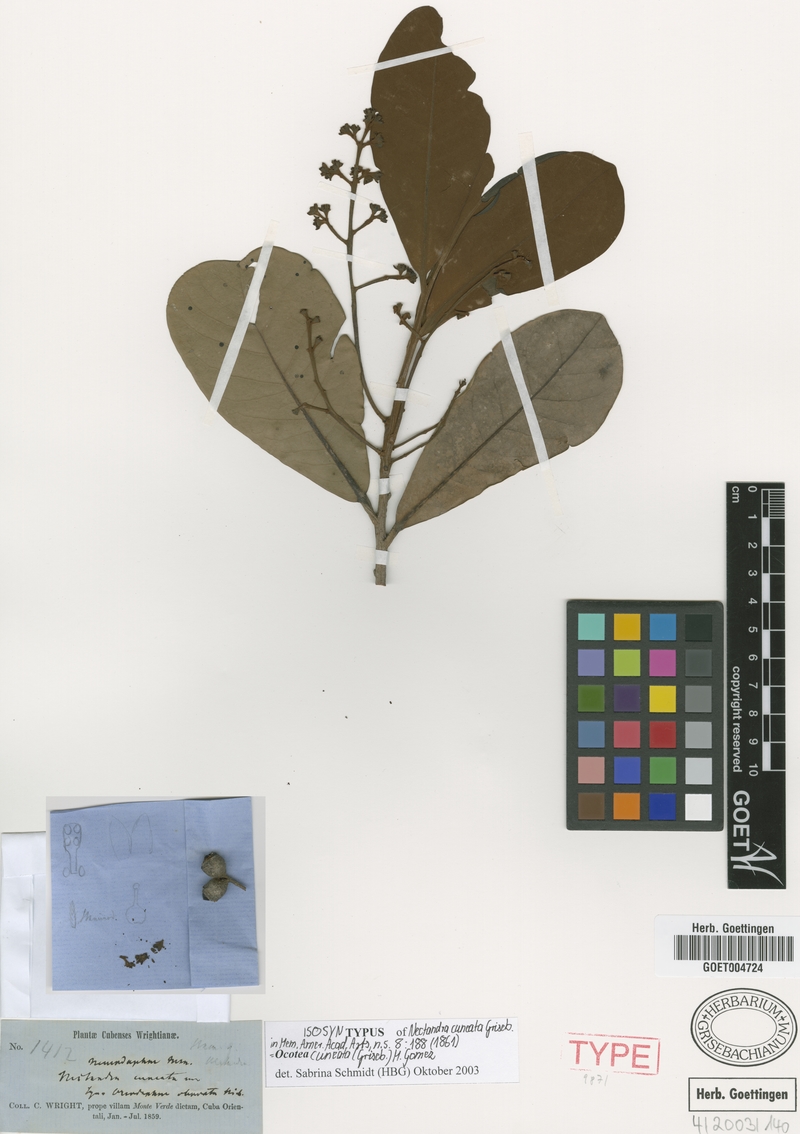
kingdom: Plantae
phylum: Tracheophyta
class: Magnoliopsida
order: Laurales
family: Lauraceae
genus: Ocotea
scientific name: Ocotea cuneata
